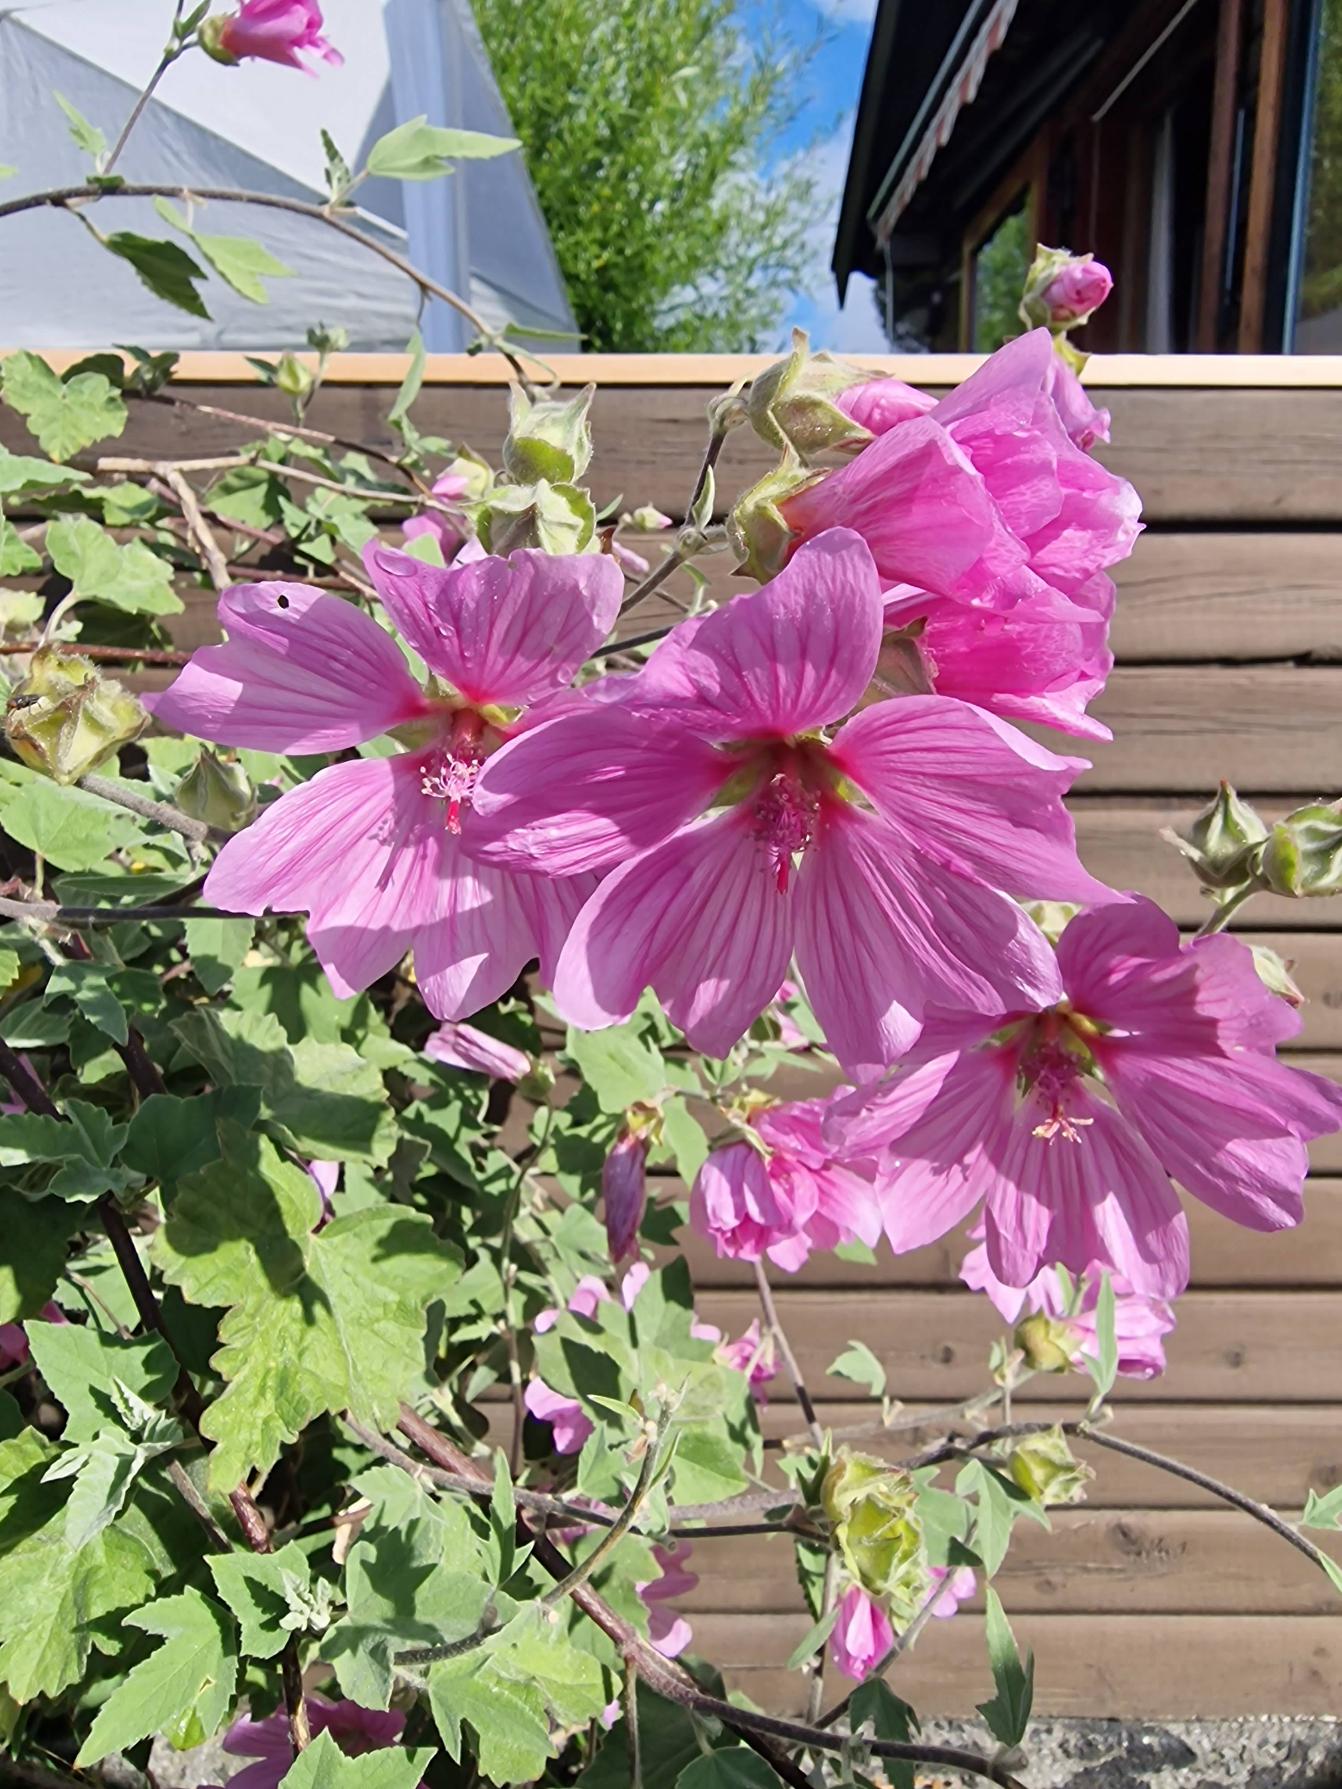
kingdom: Plantae
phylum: Tracheophyta
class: Magnoliopsida
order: Malvales
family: Malvaceae
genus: Malva
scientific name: Malva thuringiaca
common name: Tysk poppelrose
